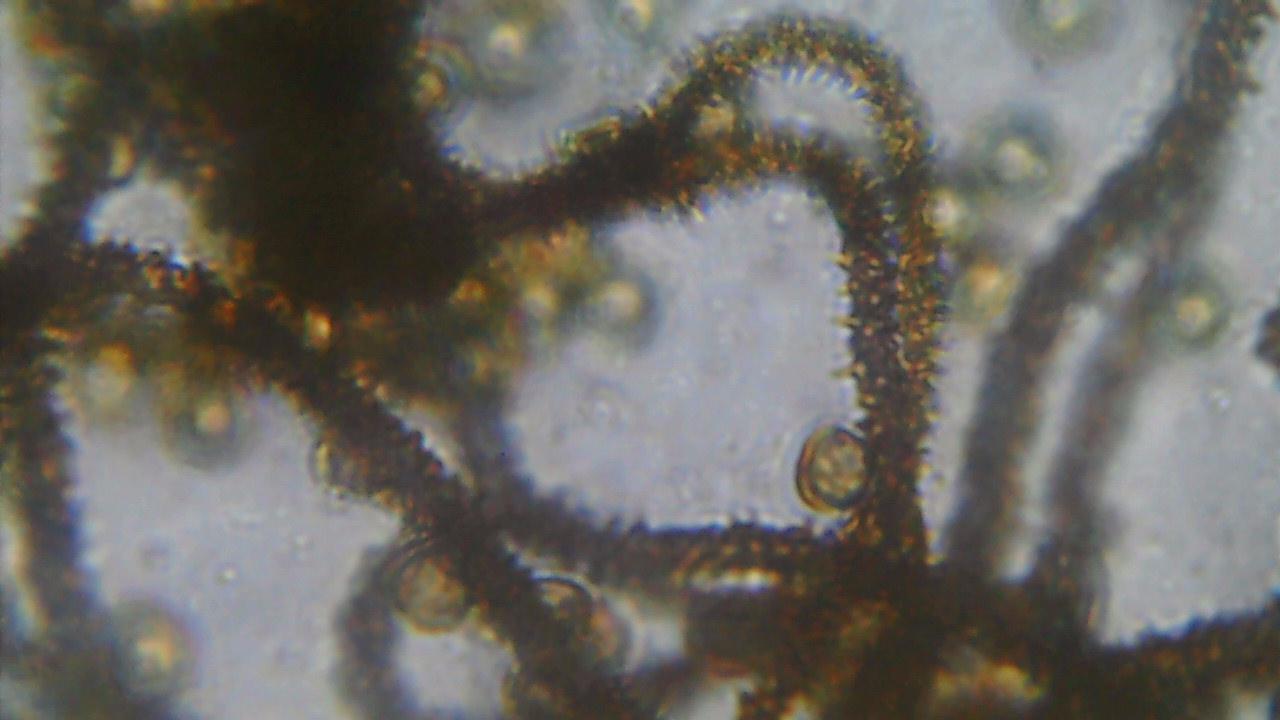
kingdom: Protozoa
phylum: Mycetozoa
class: Myxomycetes
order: Trichiales
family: Trichiaceae
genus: Metatrichia
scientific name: Metatrichia vesparia
